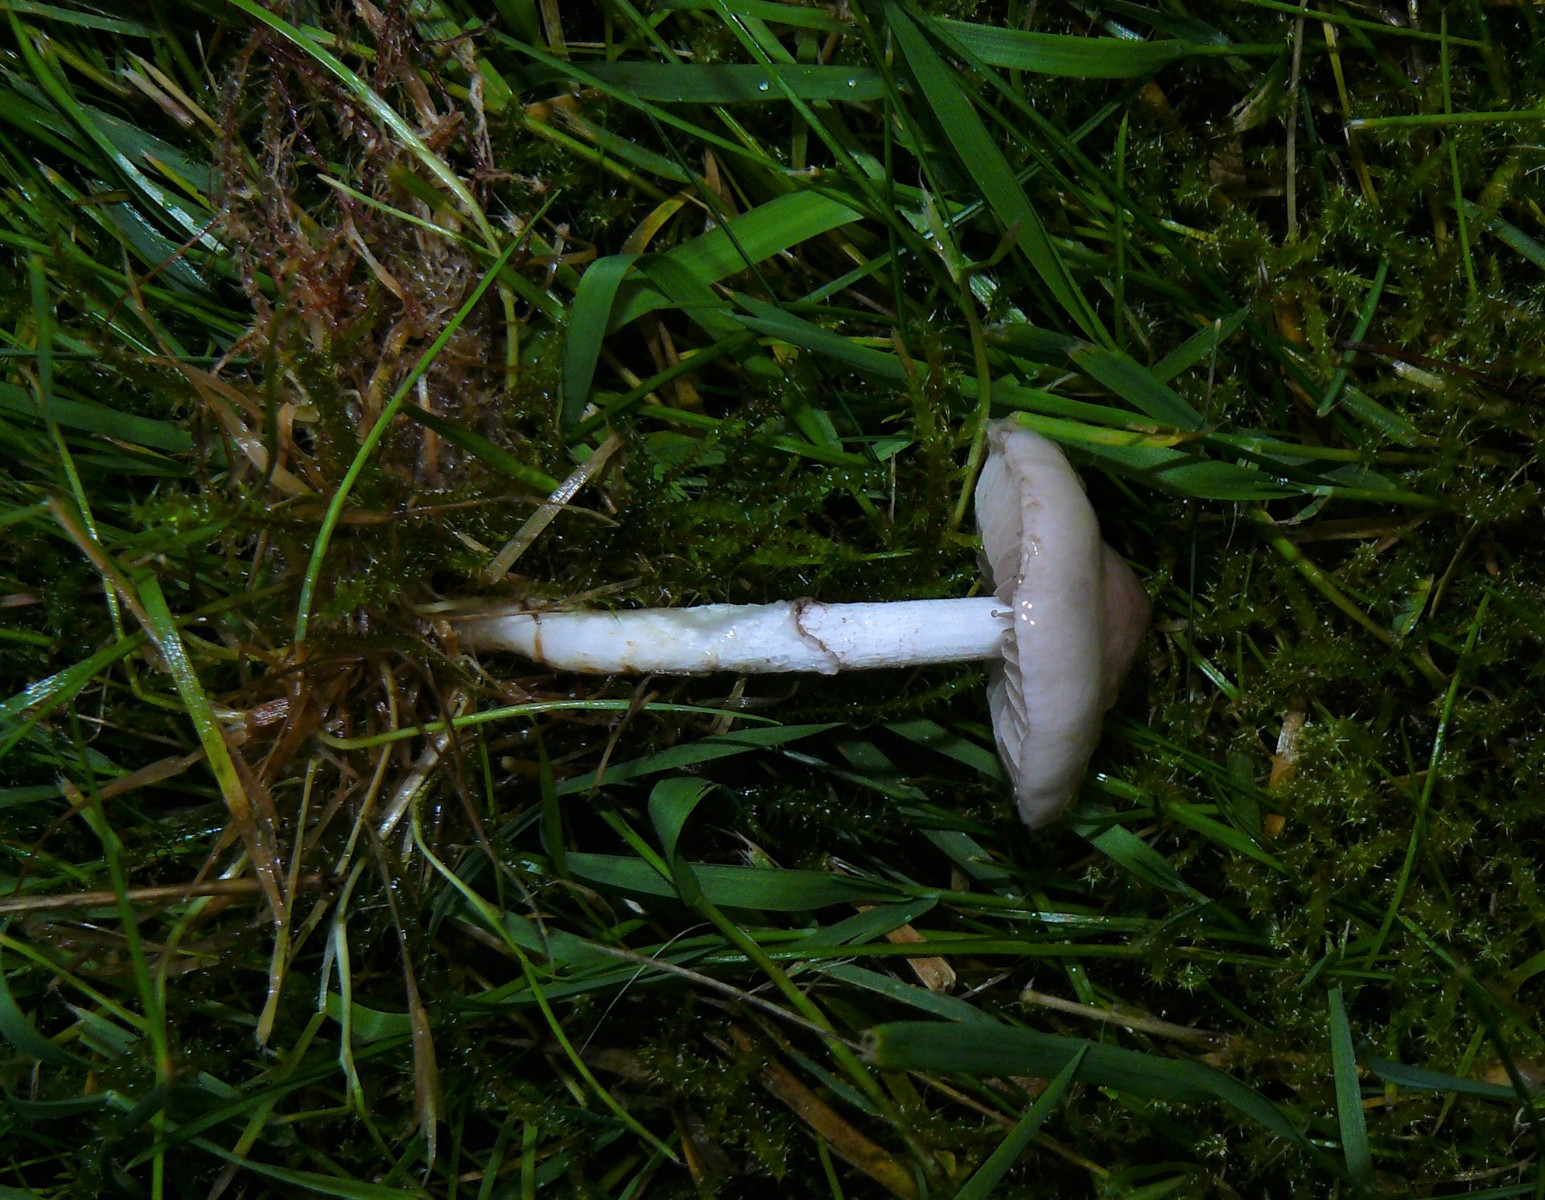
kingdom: Fungi
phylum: Basidiomycota
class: Agaricomycetes
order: Agaricales
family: Strophariaceae
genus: Stropharia
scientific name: Stropharia inuncta
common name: lillabrun bredblad
